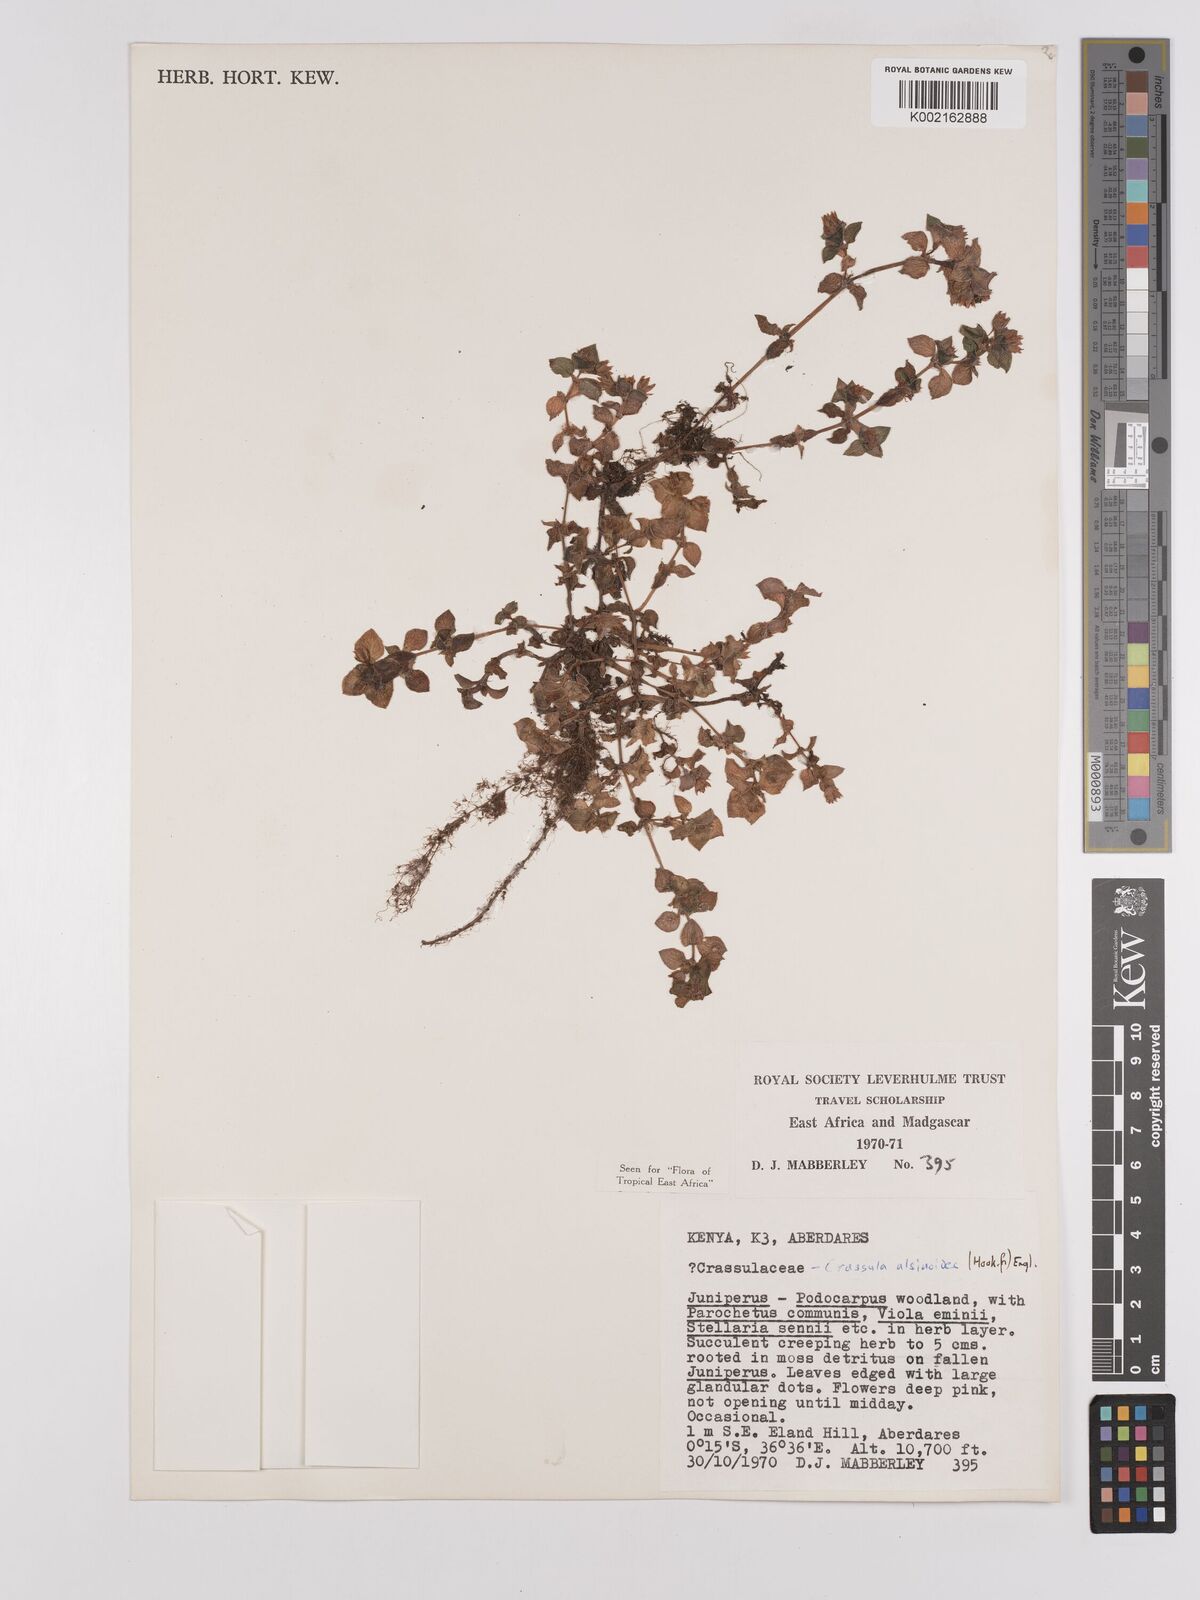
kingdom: Plantae
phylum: Tracheophyta
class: Magnoliopsida
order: Saxifragales
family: Crassulaceae
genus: Crassula
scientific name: Crassula alsinoides
